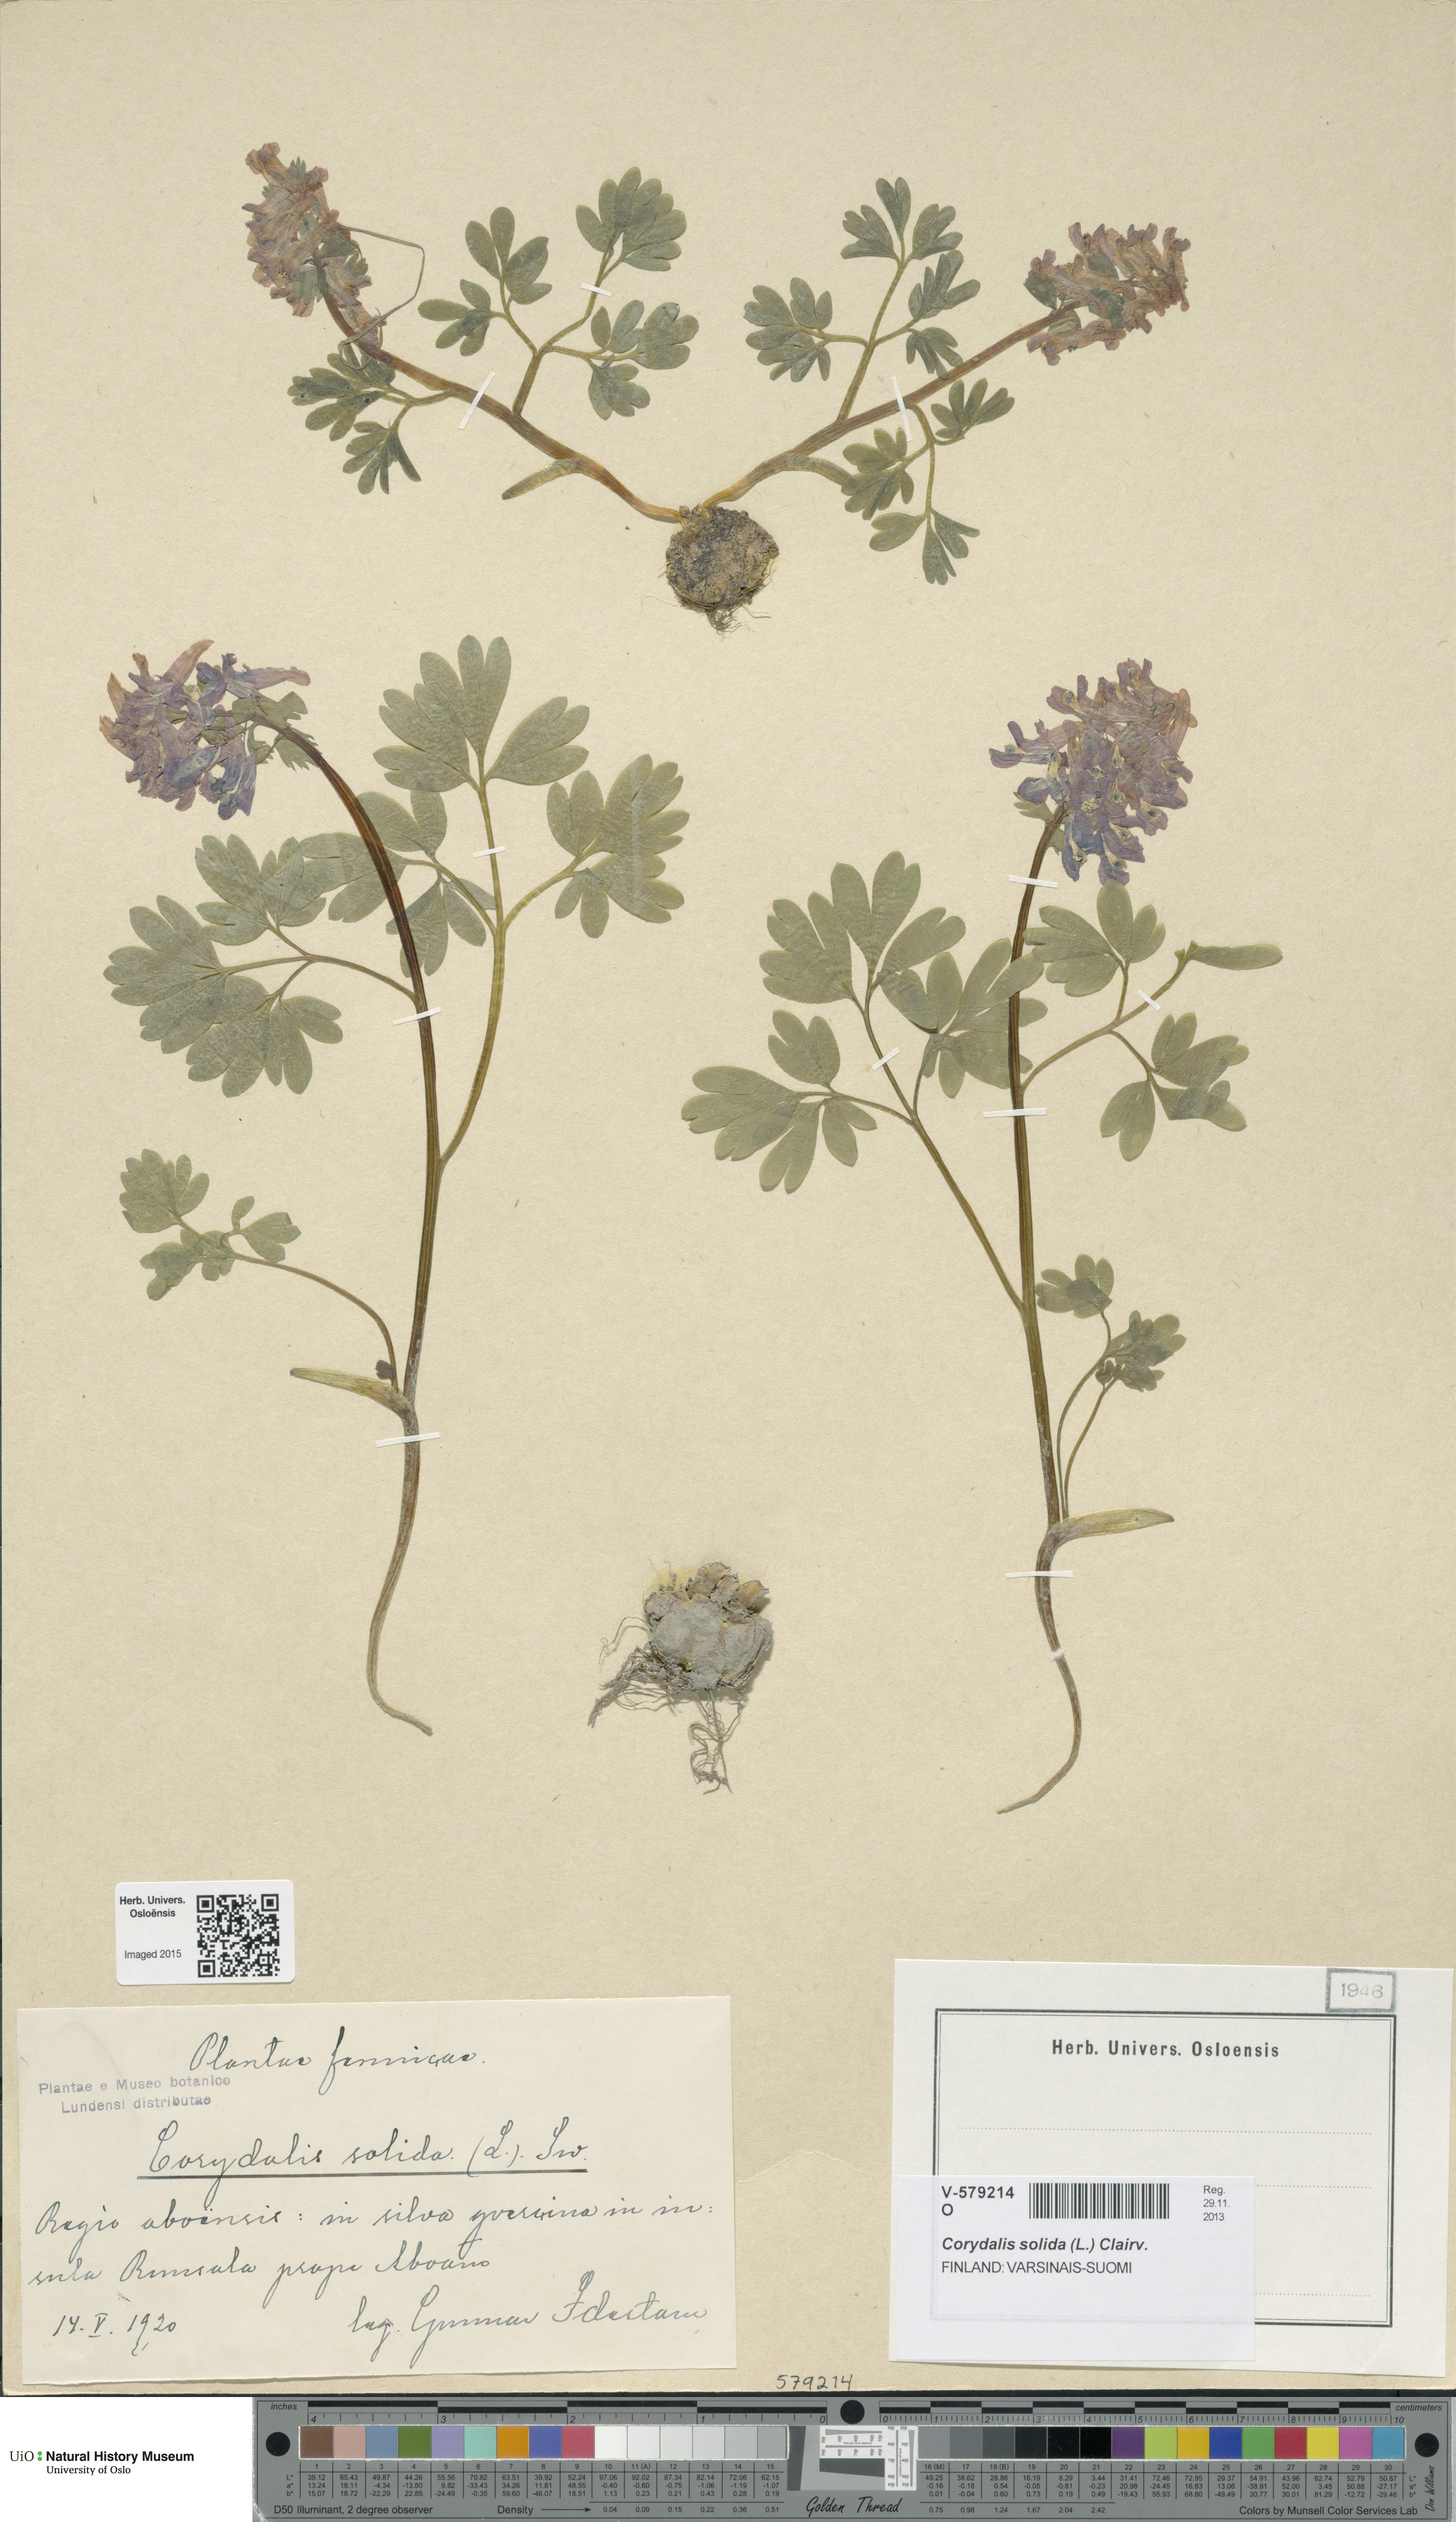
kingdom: Plantae
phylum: Tracheophyta
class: Magnoliopsida
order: Ranunculales
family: Papaveraceae
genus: Corydalis
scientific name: Corydalis solida
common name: Bird-in-a-bush
